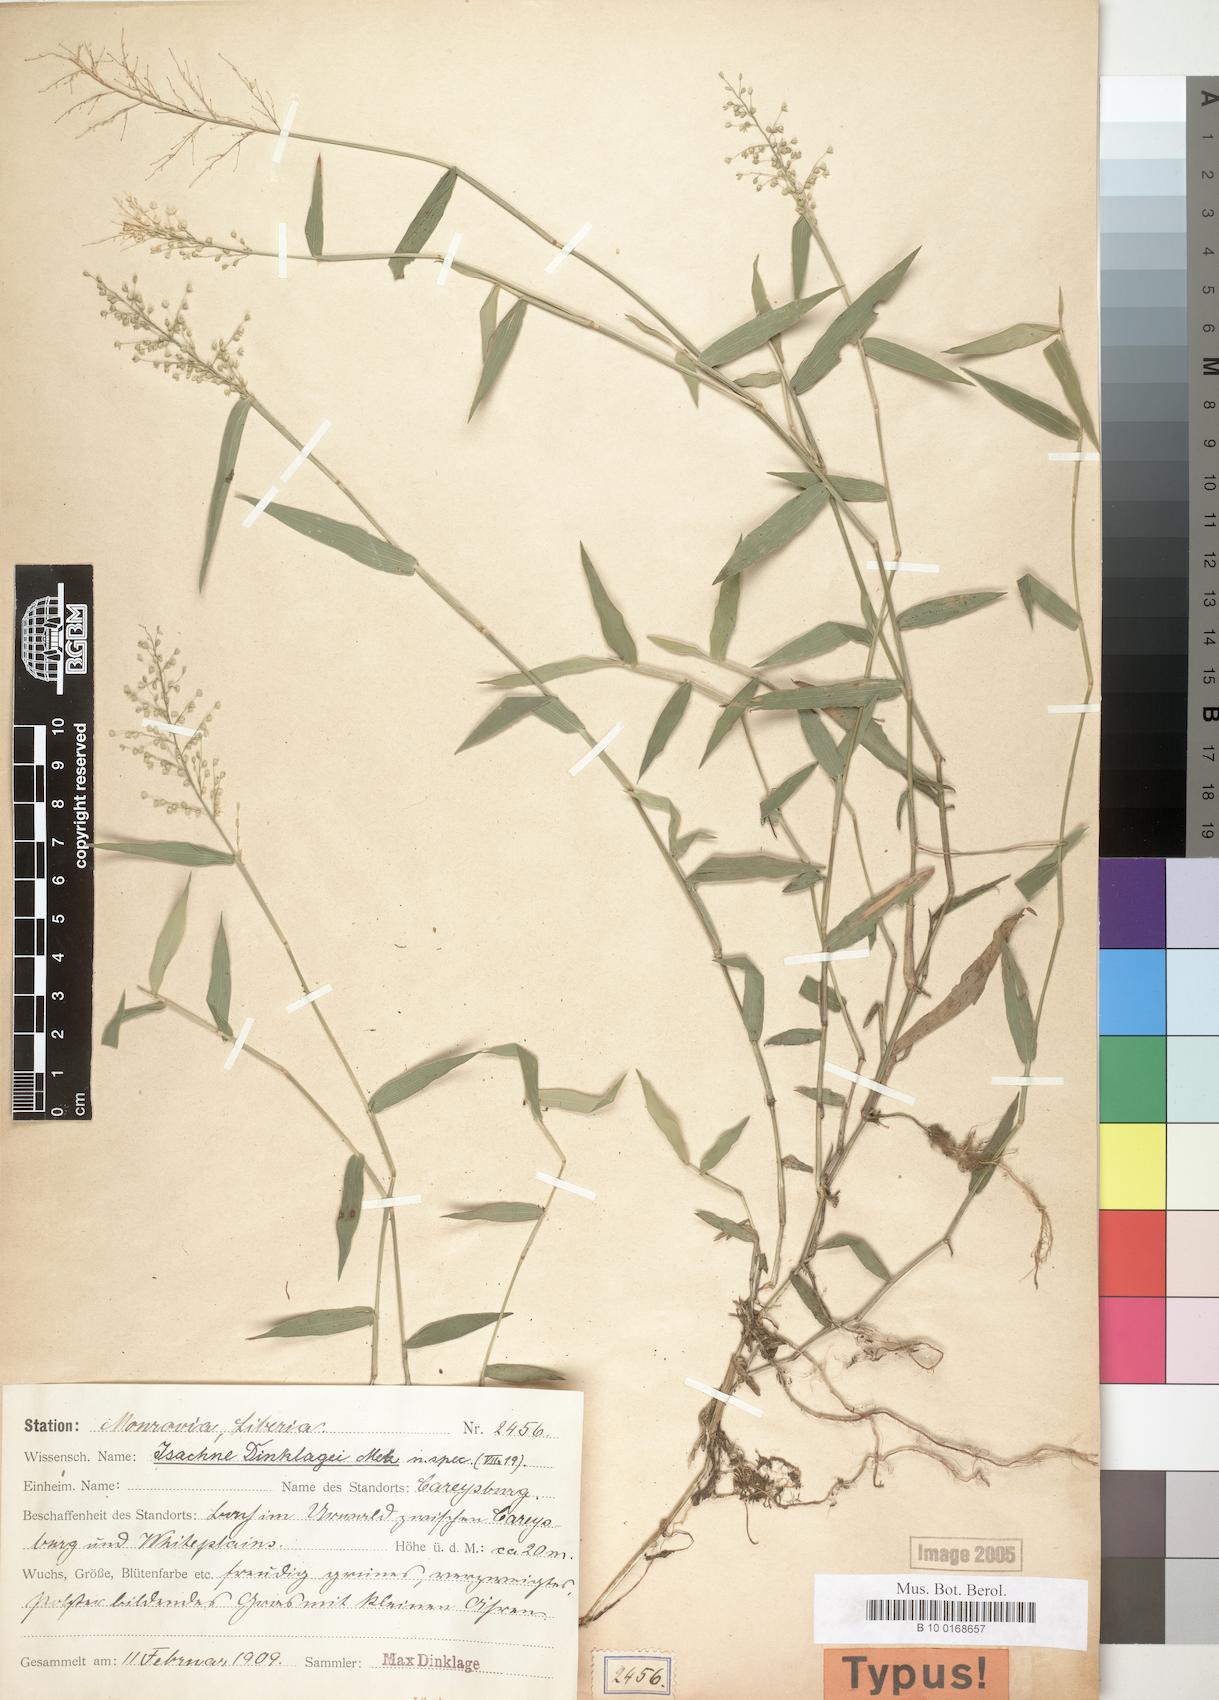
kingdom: Plantae
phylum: Tracheophyta
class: Liliopsida
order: Poales
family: Poaceae
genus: Isachne
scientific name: Isachne
